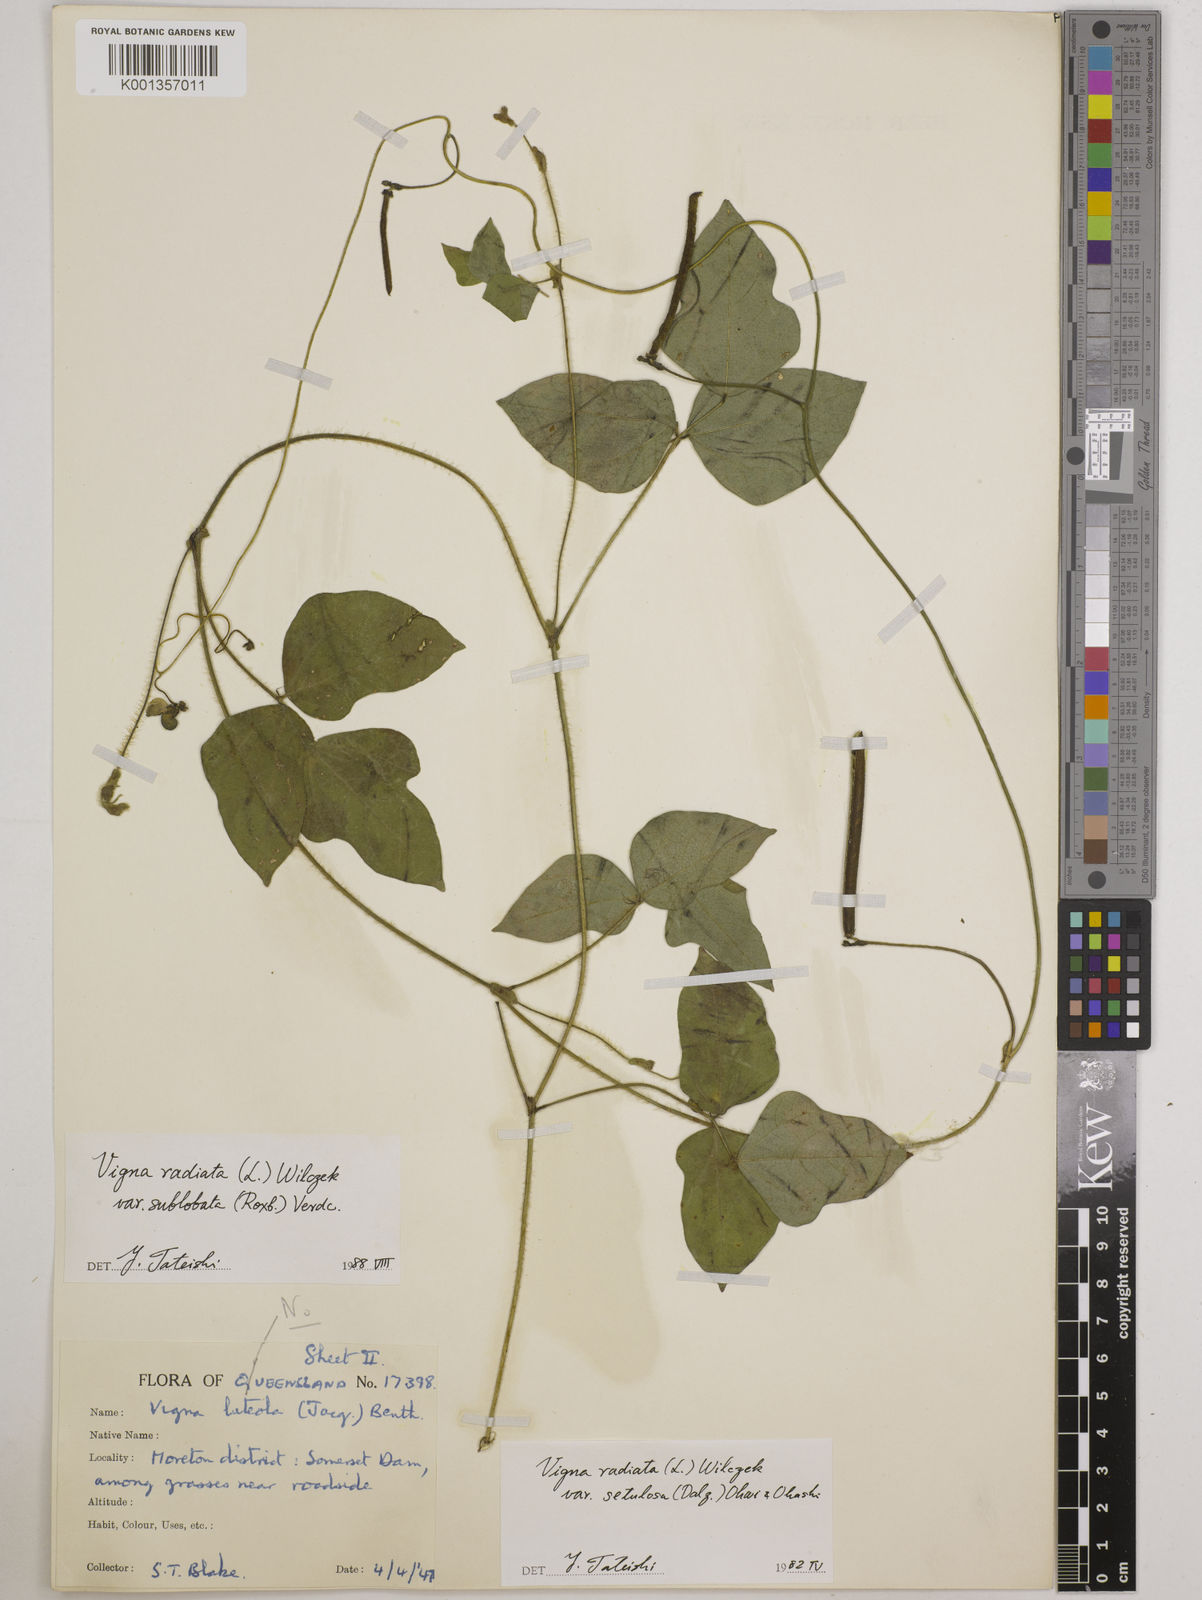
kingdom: Plantae
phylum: Tracheophyta
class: Magnoliopsida
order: Fabales
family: Fabaceae
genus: Vigna
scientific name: Vigna radiata
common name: Mung-bean
